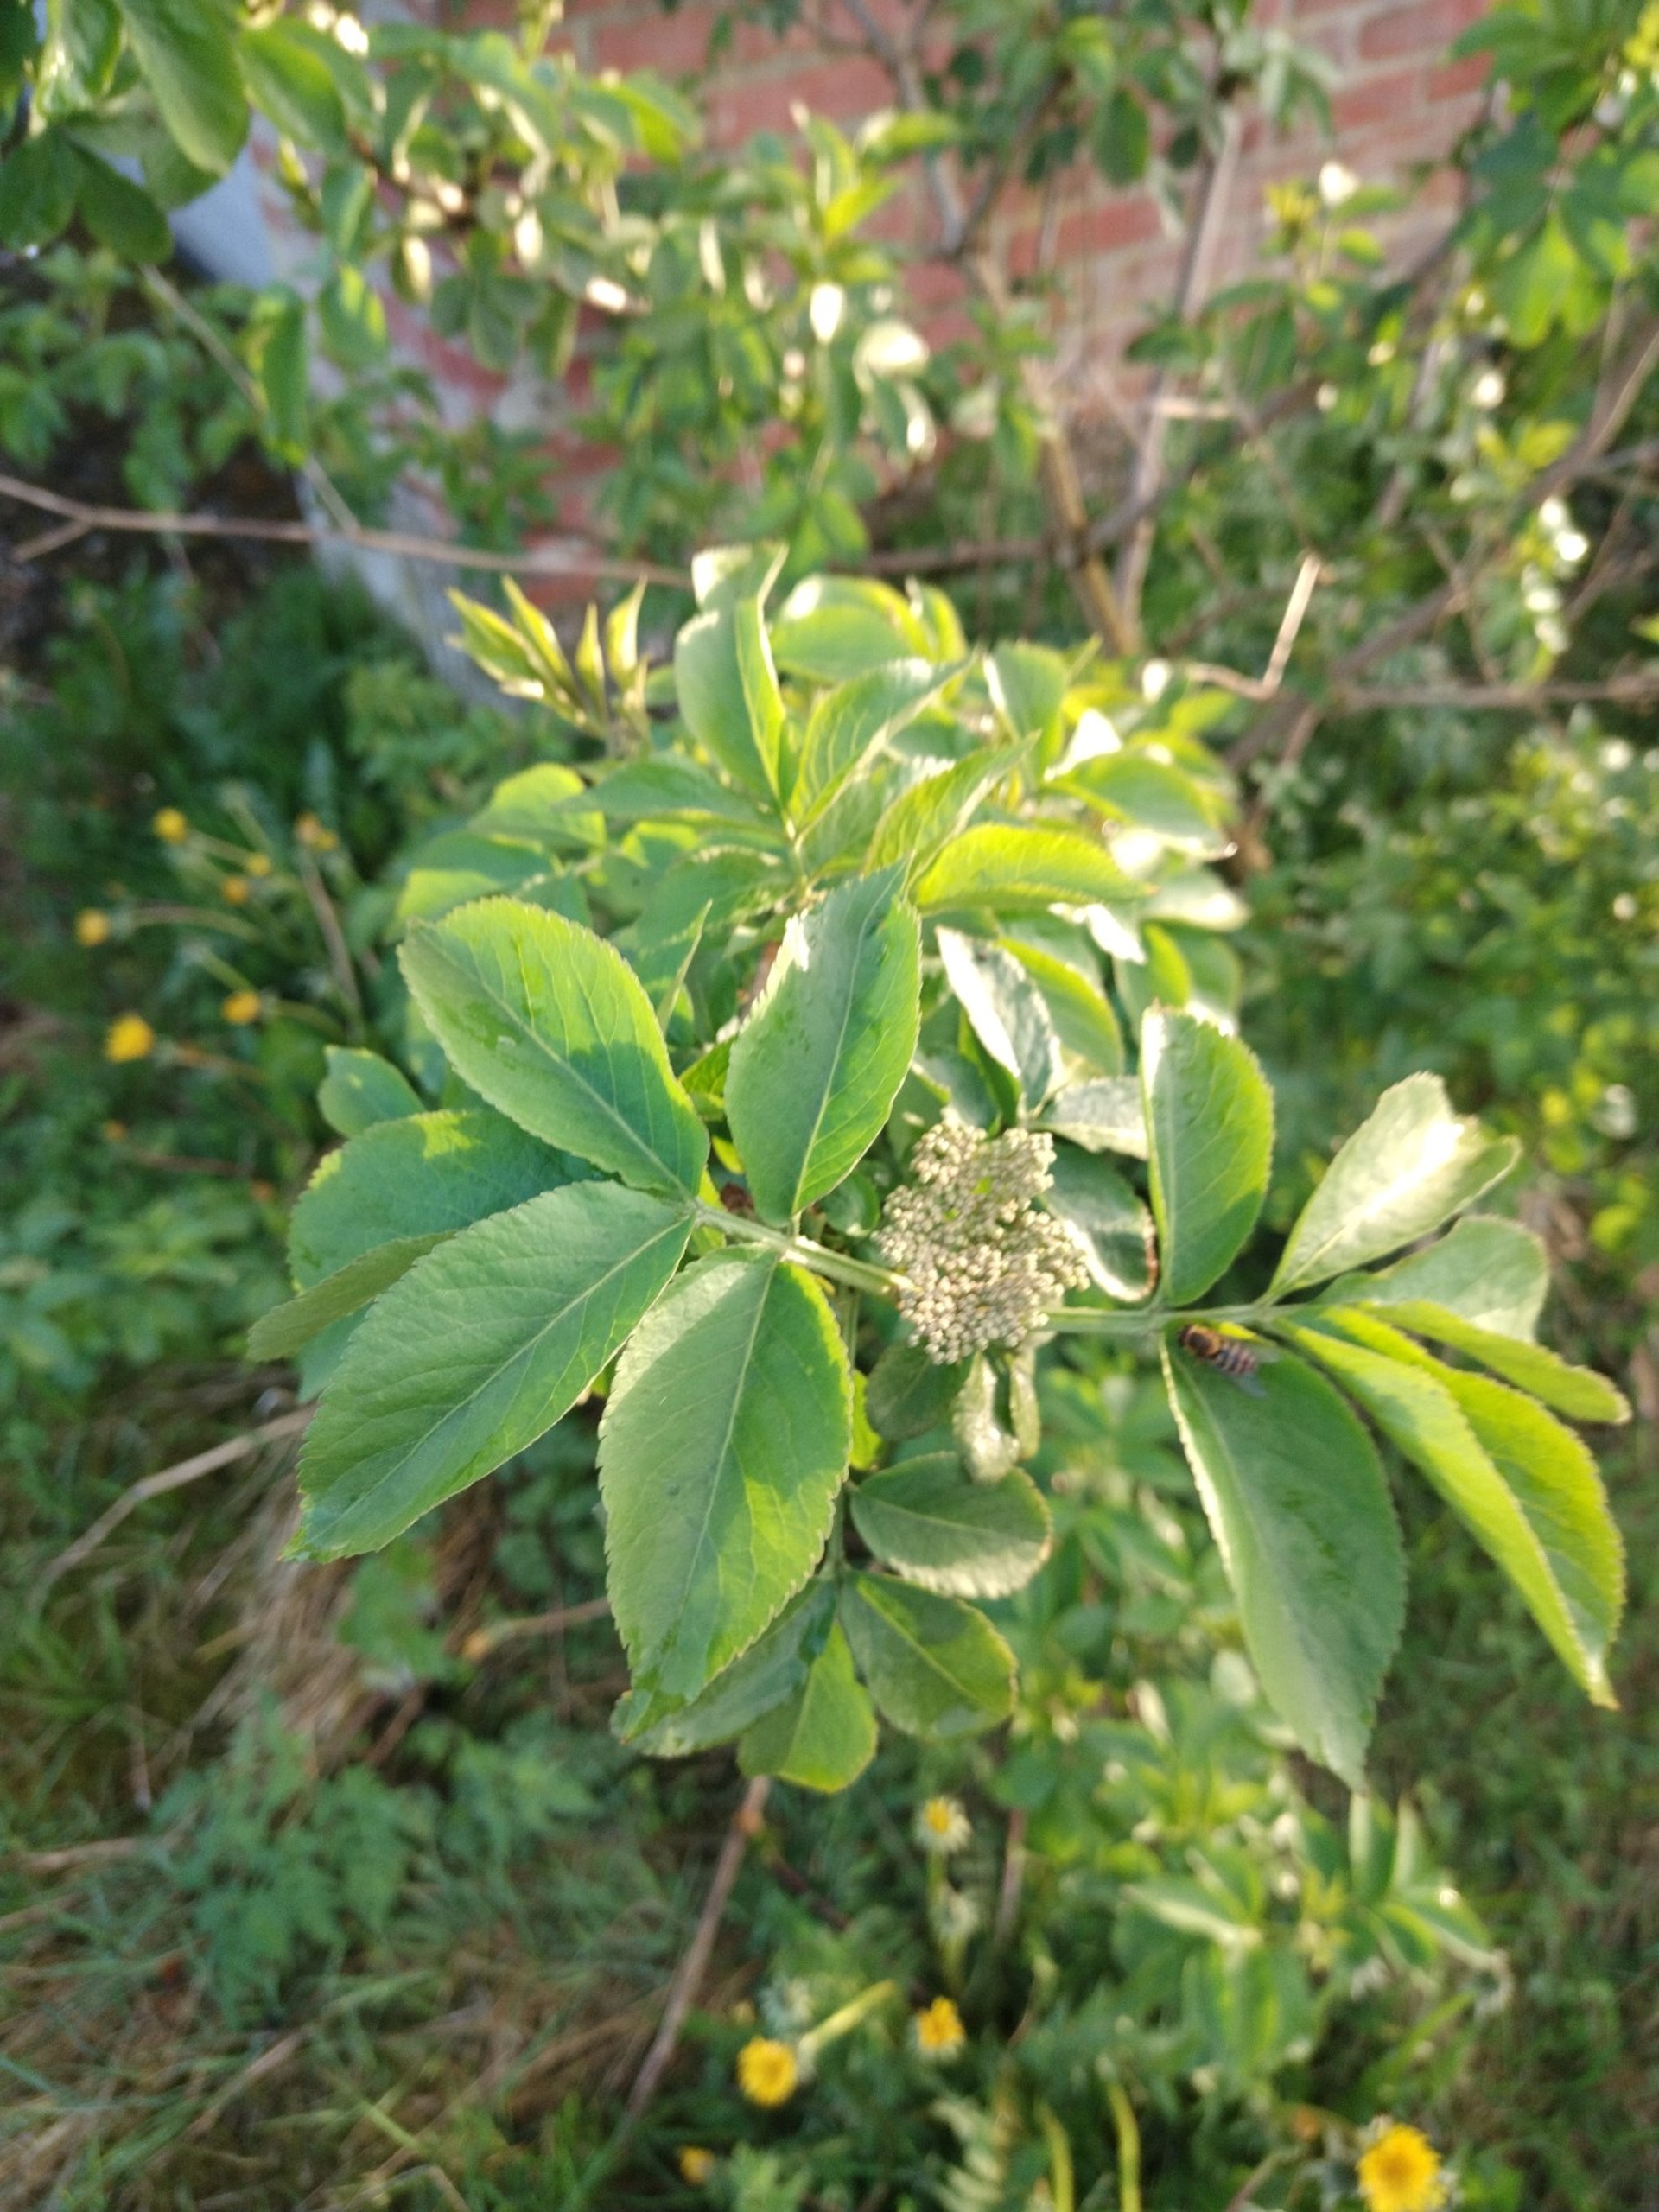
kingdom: Plantae
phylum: Tracheophyta
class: Magnoliopsida
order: Dipsacales
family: Viburnaceae
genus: Sambucus
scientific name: Sambucus nigra
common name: Almindelig hyld
